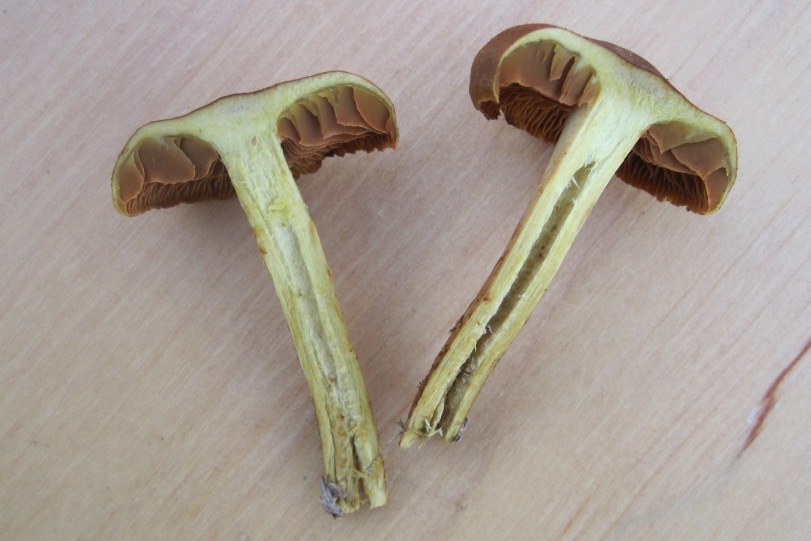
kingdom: Fungi
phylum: Basidiomycota
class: Agaricomycetes
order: Agaricales
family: Cortinariaceae
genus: Cortinarius
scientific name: Cortinarius malicorius
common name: grønkødet slørhat
